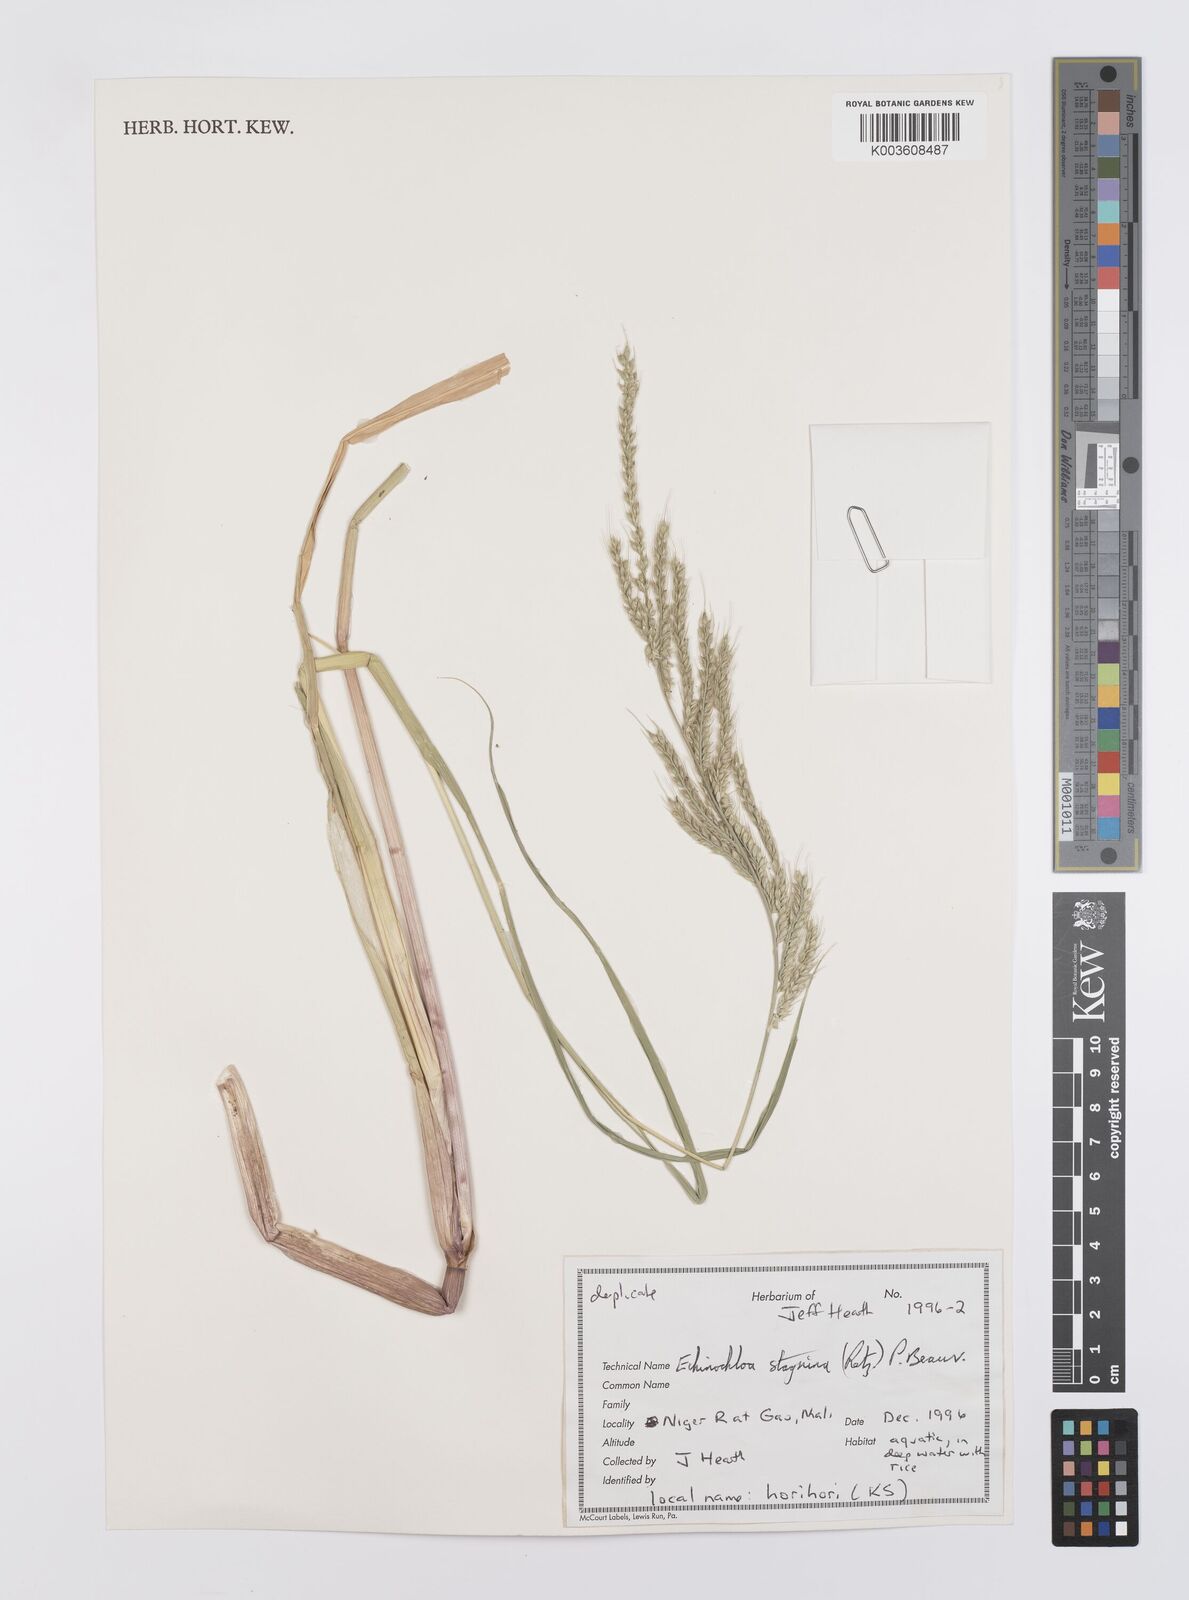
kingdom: Plantae
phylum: Tracheophyta
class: Liliopsida
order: Poales
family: Poaceae
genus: Echinochloa
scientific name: Echinochloa stagnina
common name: Burgu grass
